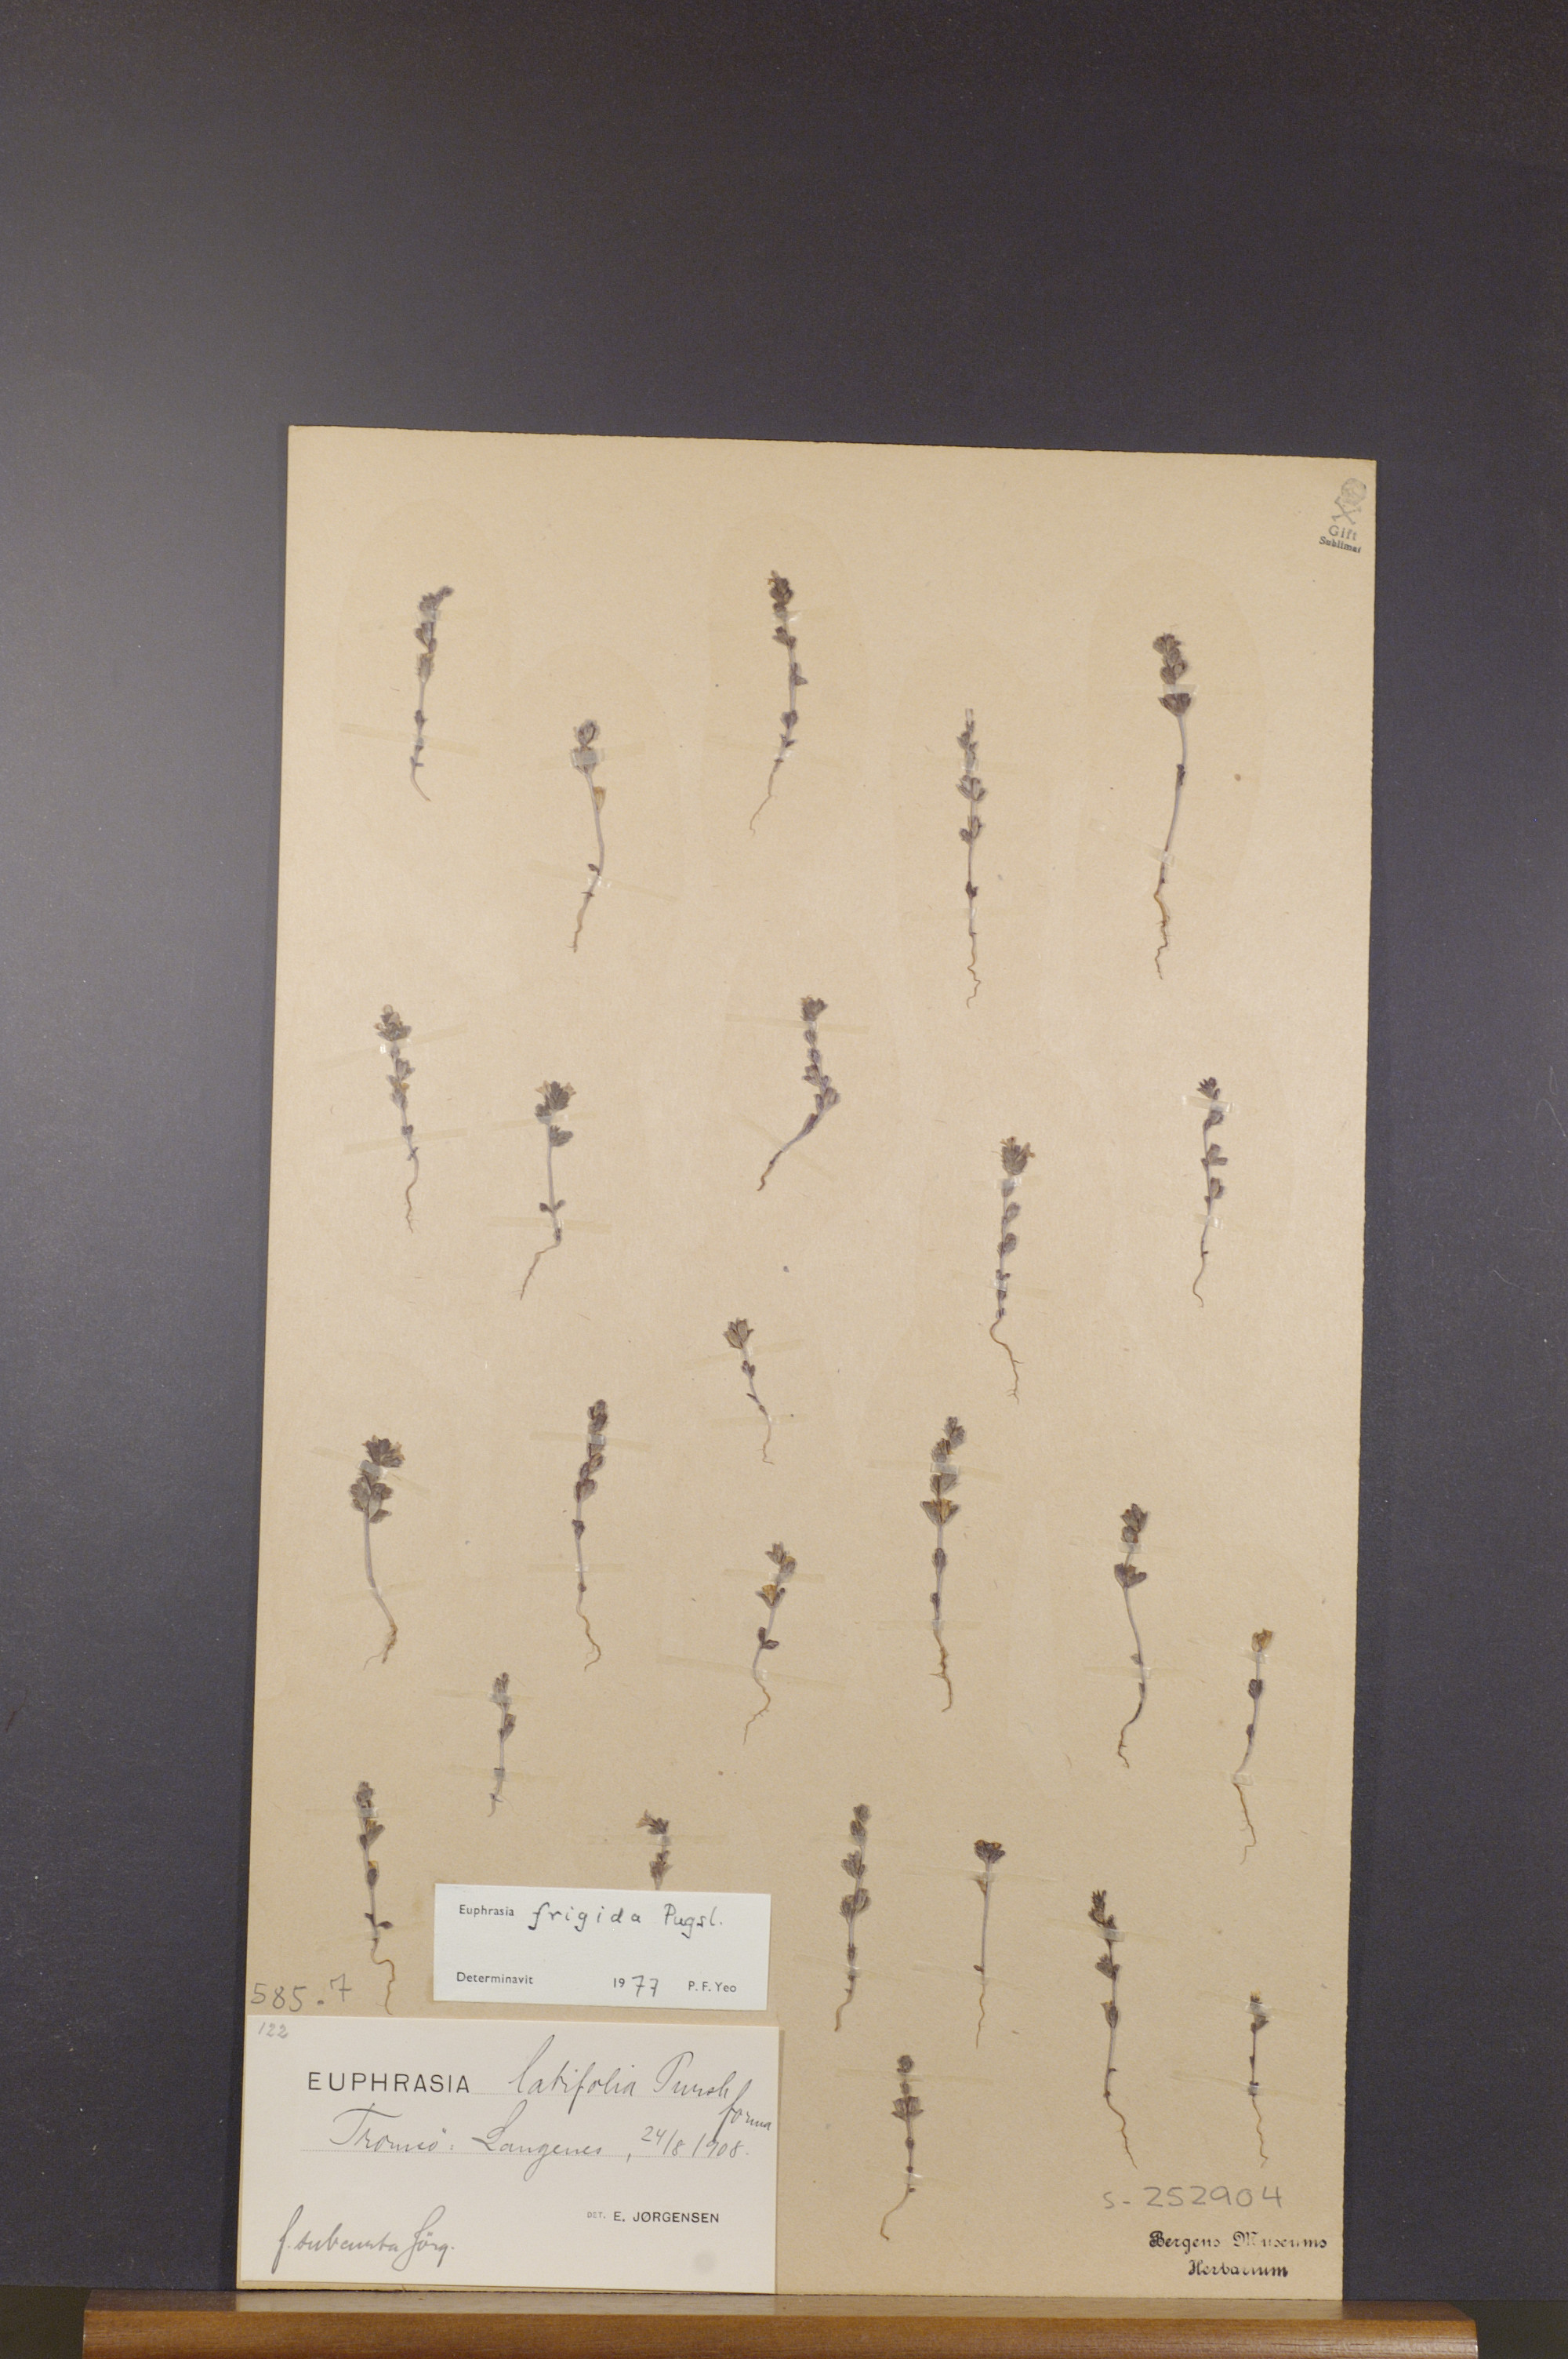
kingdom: Plantae
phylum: Tracheophyta
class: Magnoliopsida
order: Lamiales
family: Orobanchaceae
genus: Euphrasia
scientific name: Euphrasia frigida
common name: An eyebright
